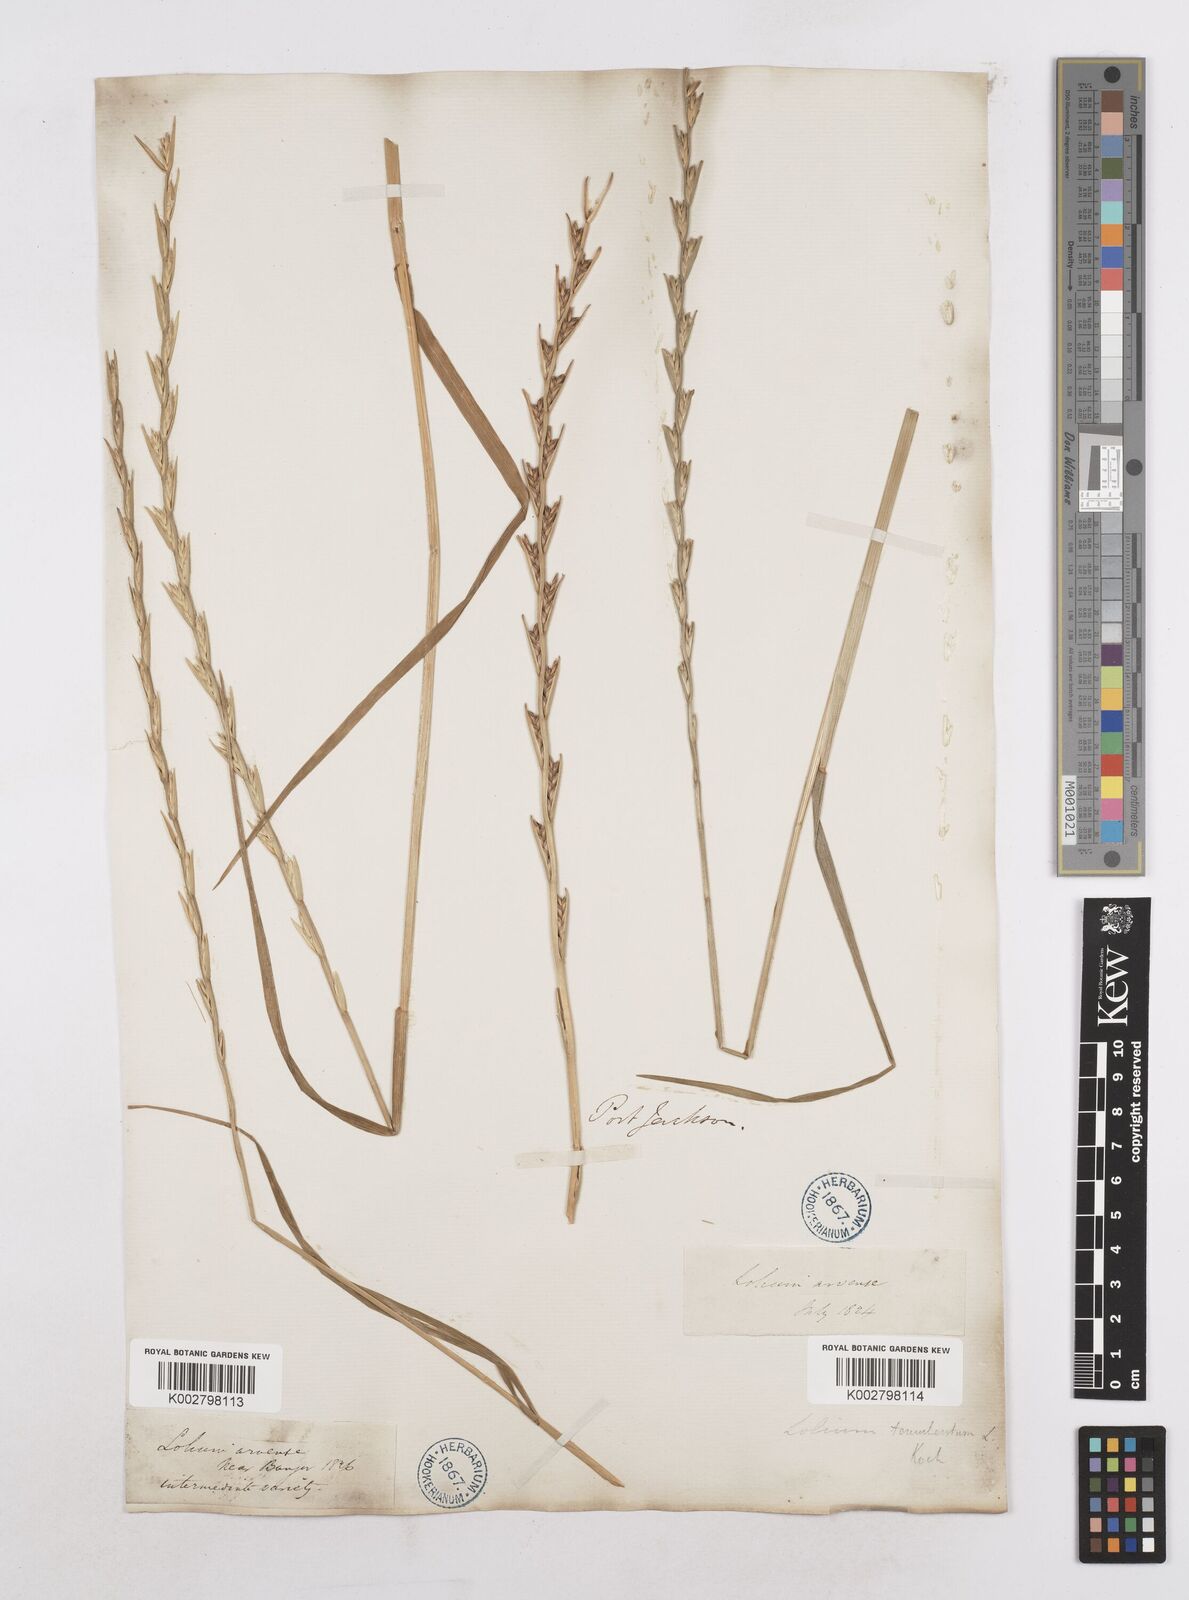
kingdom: Plantae
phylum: Tracheophyta
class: Liliopsida
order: Poales
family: Poaceae
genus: Lolium
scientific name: Lolium temulentum
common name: Darnel
